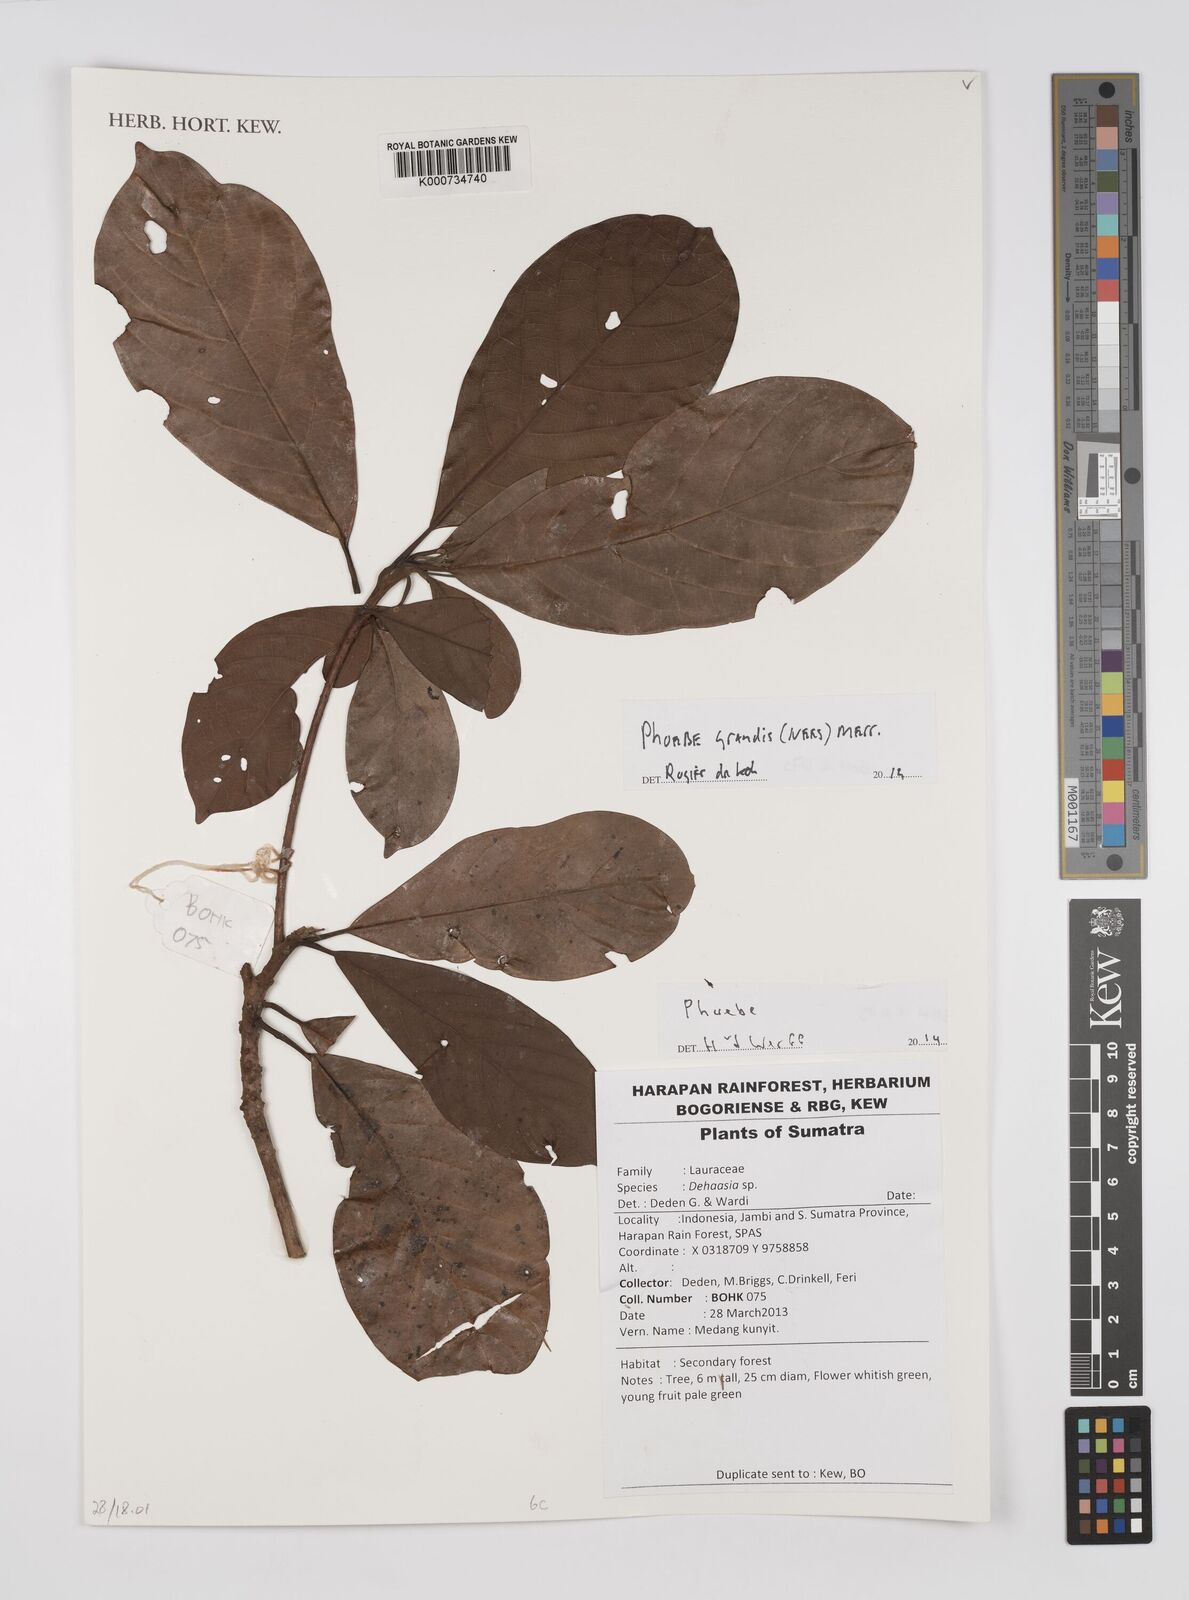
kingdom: Plantae
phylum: Tracheophyta
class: Magnoliopsida
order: Laurales
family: Lauraceae
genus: Phoebe
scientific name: Phoebe grandis
